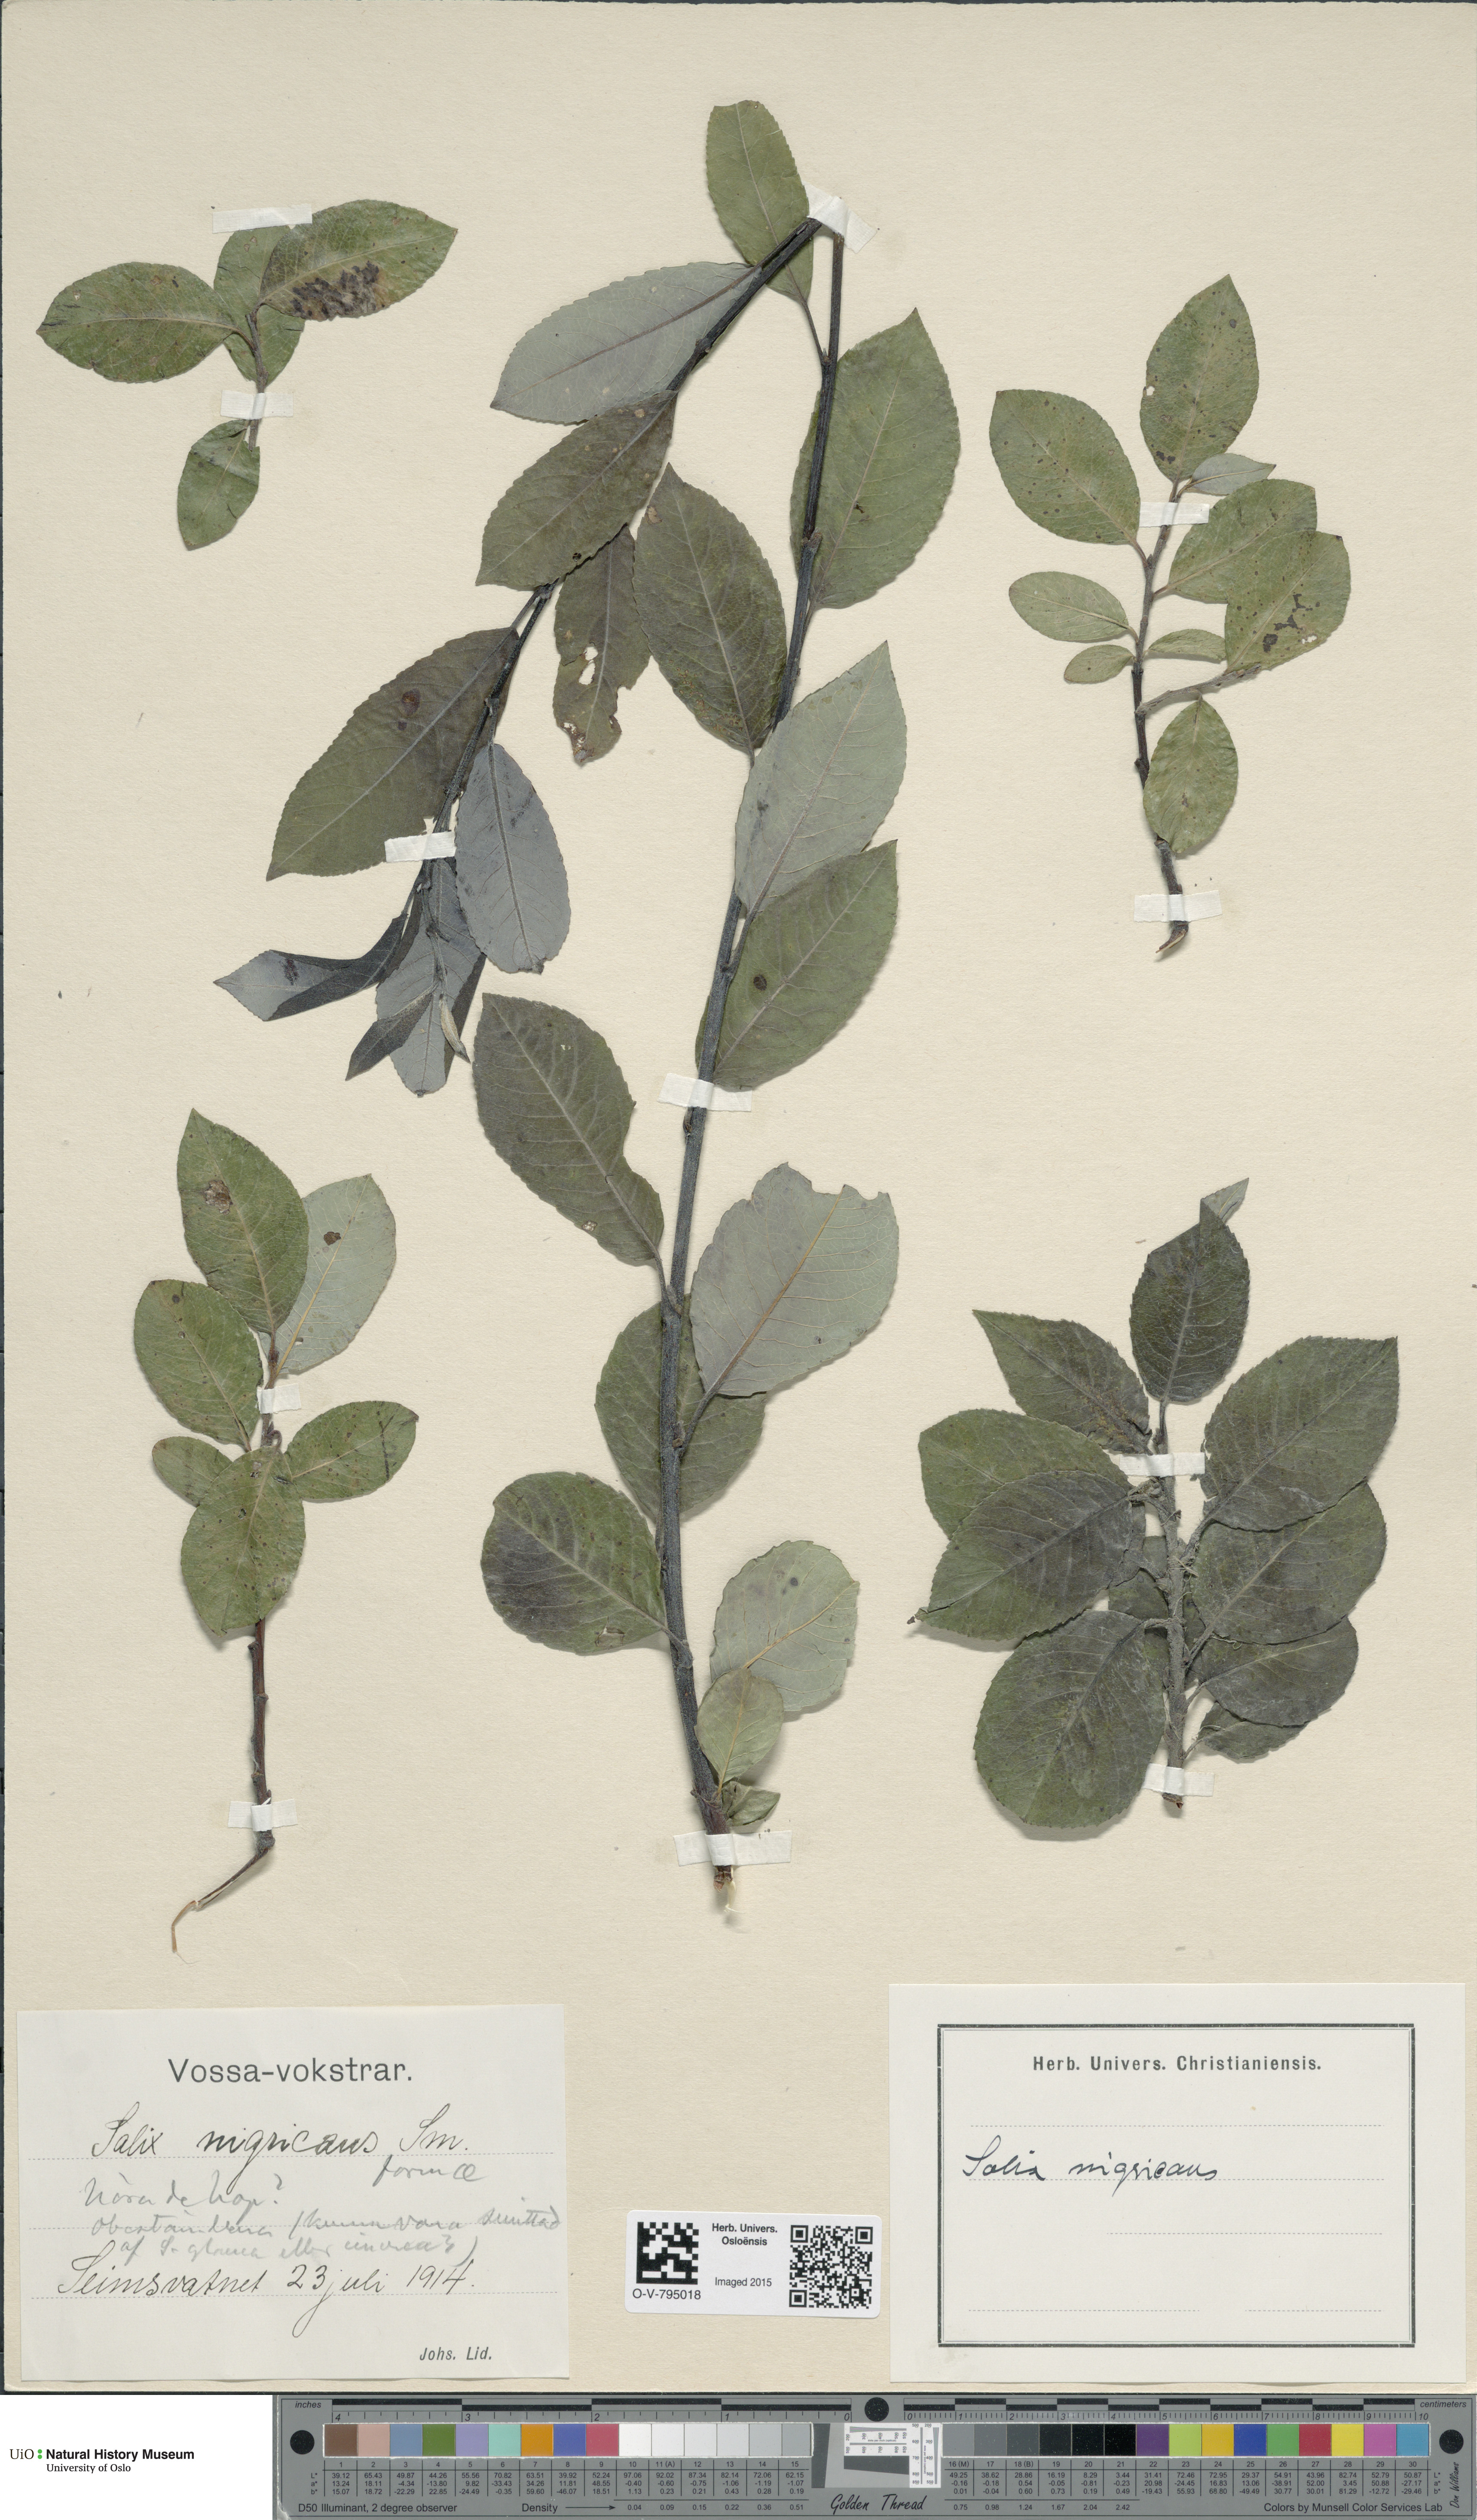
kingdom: Plantae
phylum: Tracheophyta
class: Magnoliopsida
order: Malpighiales
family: Salicaceae
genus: Salix
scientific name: Salix myrsinifolia
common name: Dark-leaved willow
